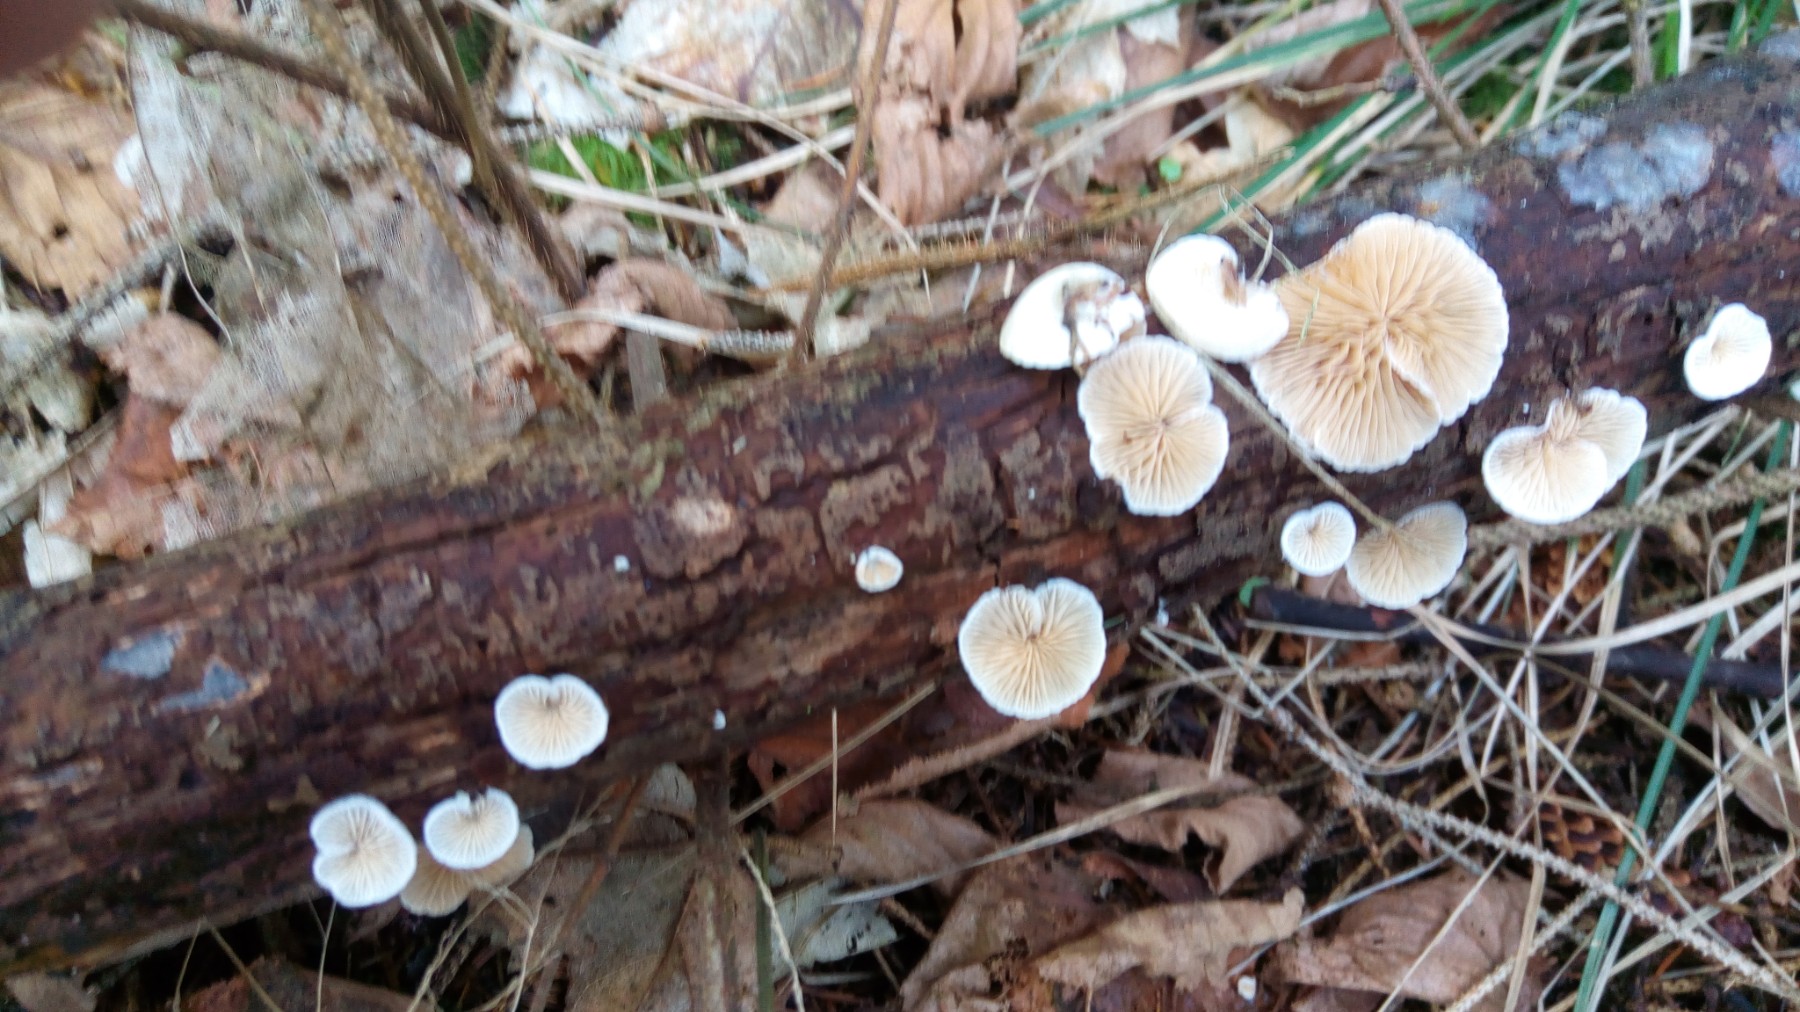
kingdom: Fungi
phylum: Basidiomycota
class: Agaricomycetes
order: Agaricales
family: Crepidotaceae
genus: Crepidotus
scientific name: Crepidotus cesatii
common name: almindelig muslingesvamp
